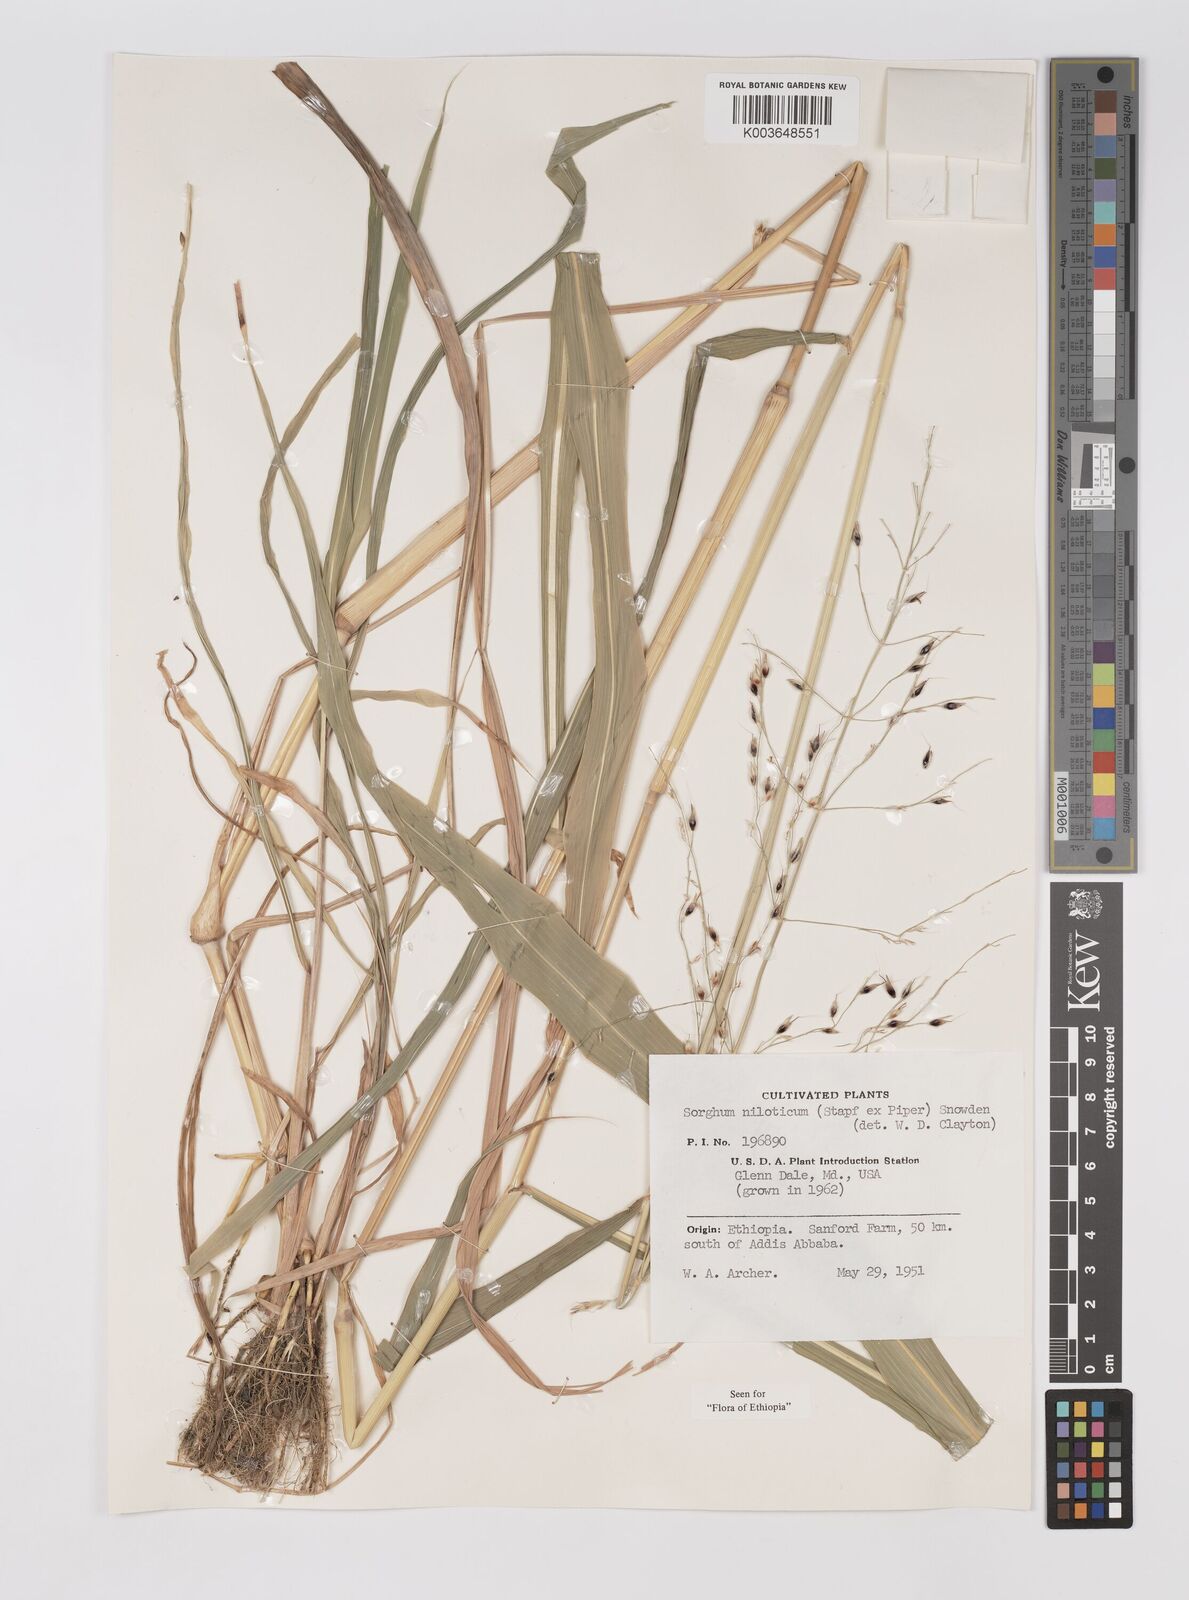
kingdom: Plantae
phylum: Tracheophyta
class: Liliopsida
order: Poales
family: Poaceae
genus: Sorghum
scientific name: Sorghum drummondii
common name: Sudangrass
